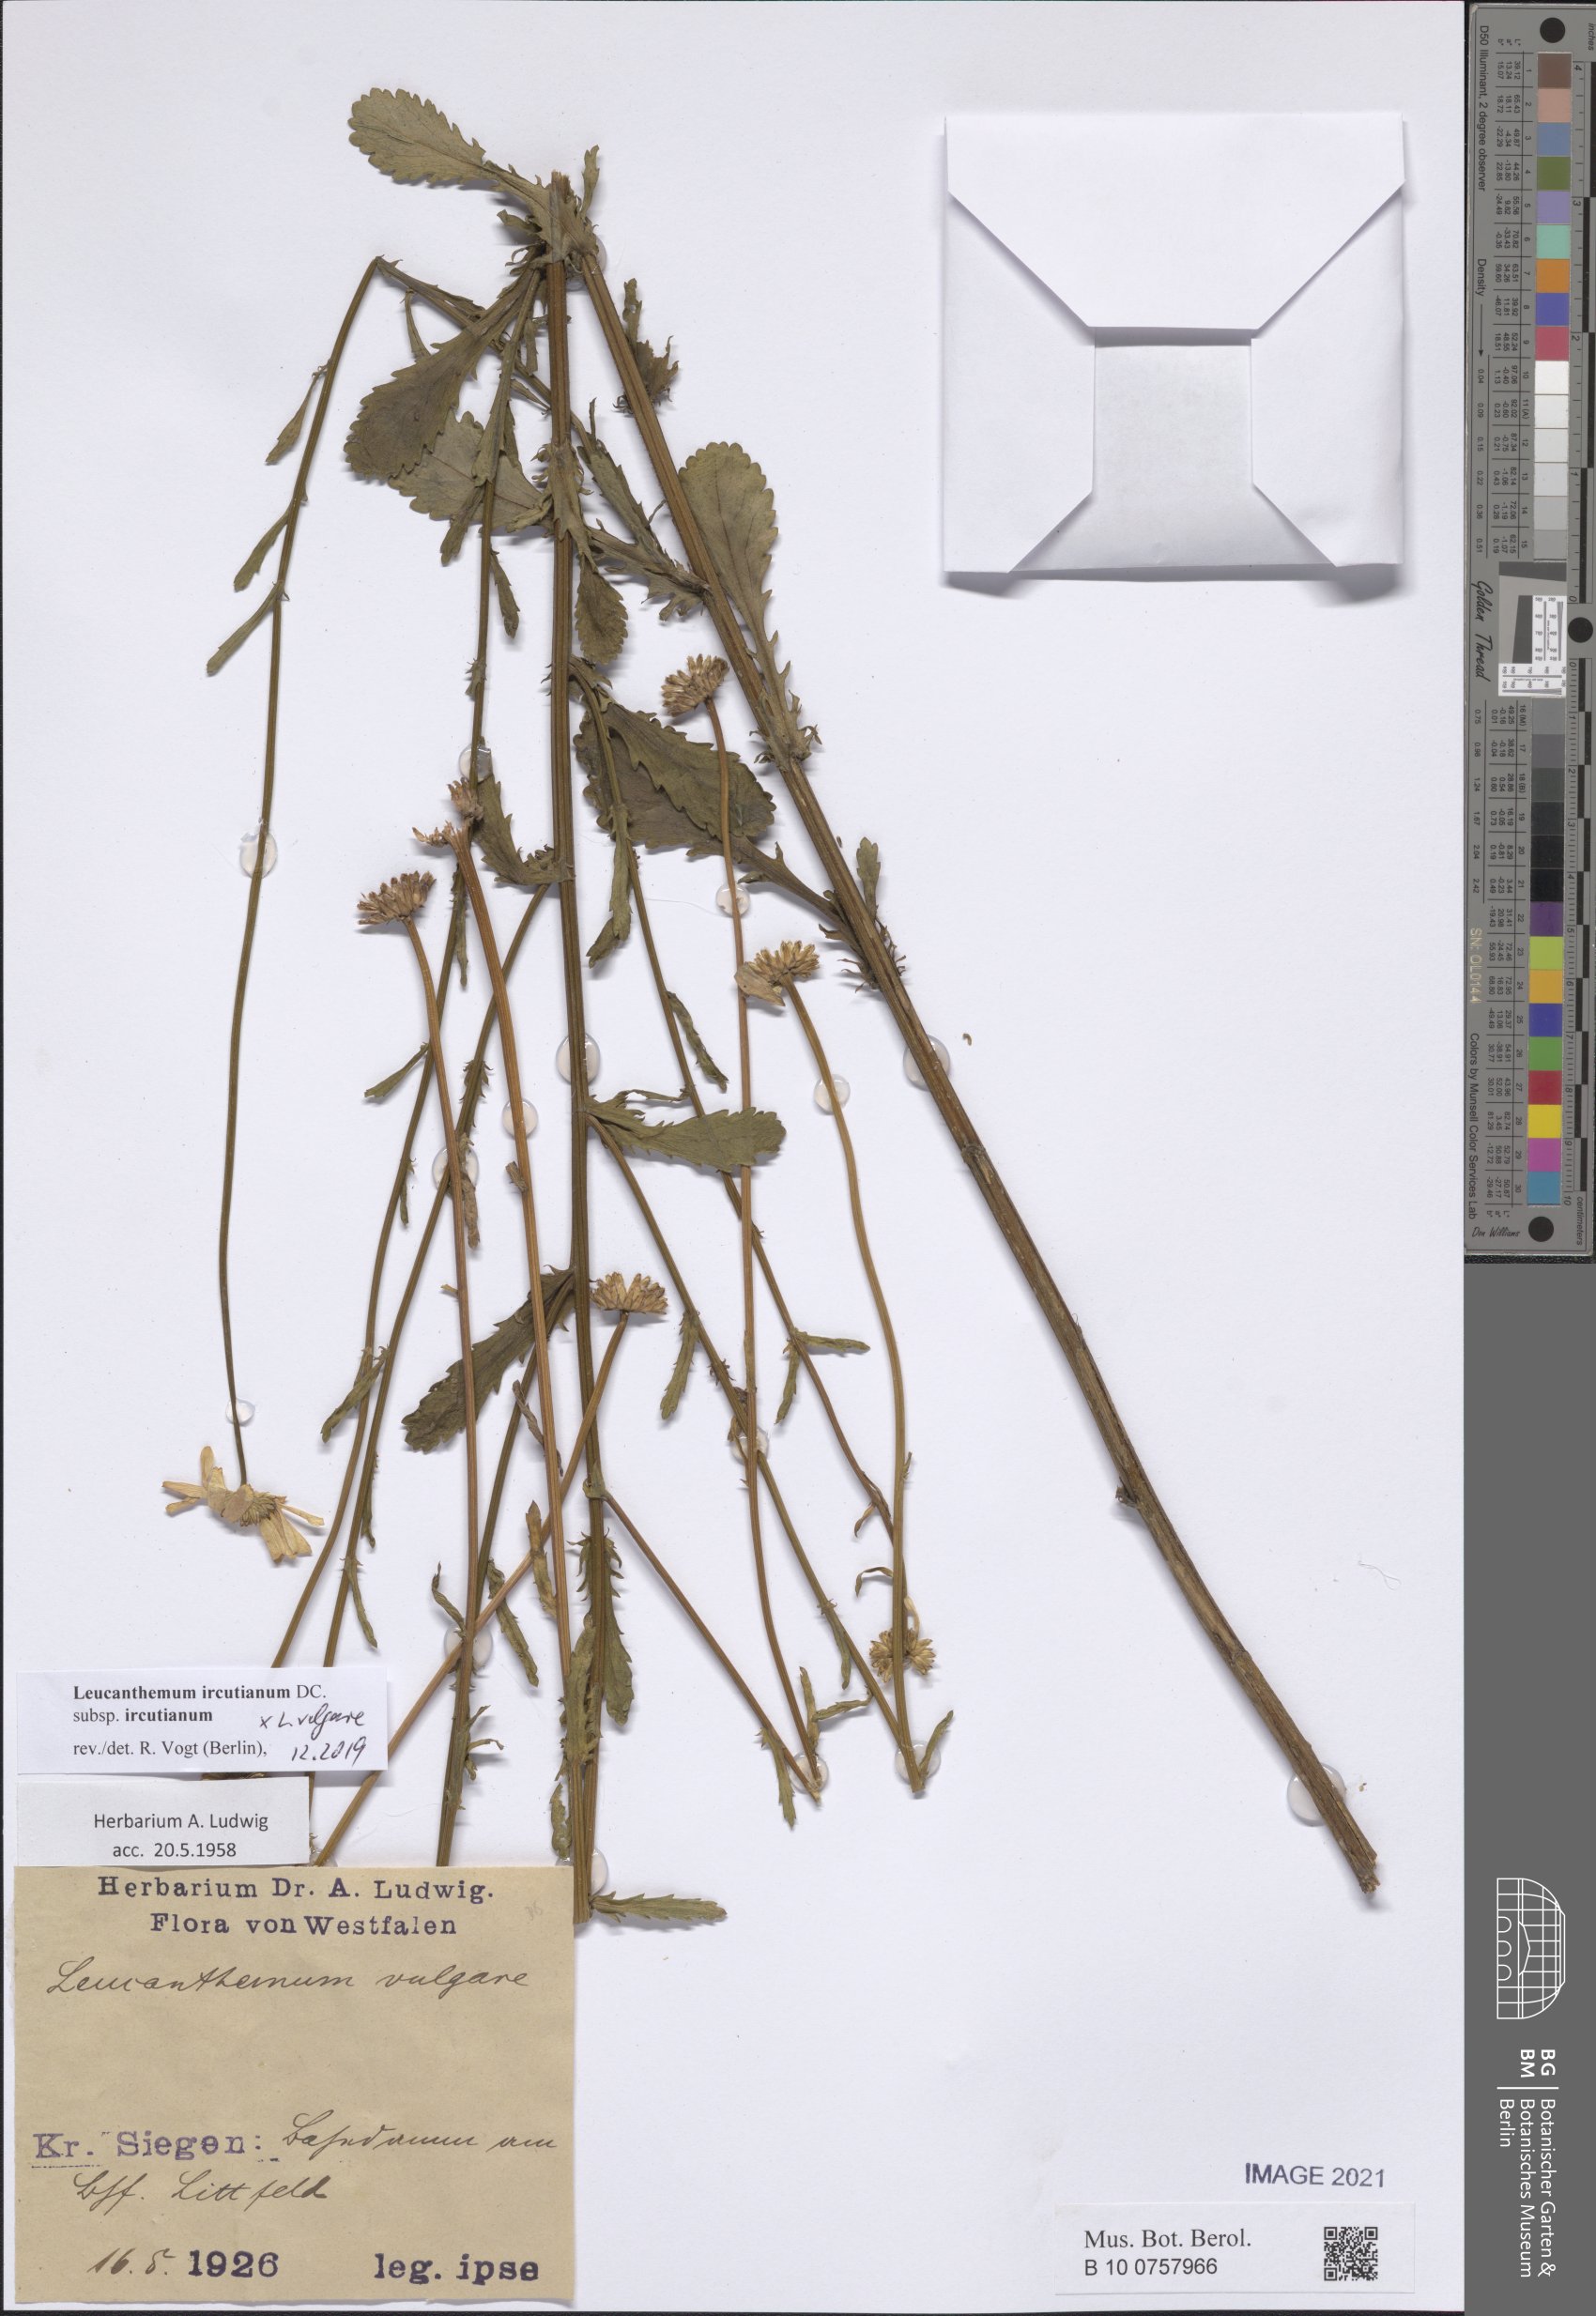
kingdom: Plantae
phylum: Tracheophyta
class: Magnoliopsida
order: Asterales
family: Asteraceae
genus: Leucanthemum
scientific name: Leucanthemum ircutianum
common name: Daisy
